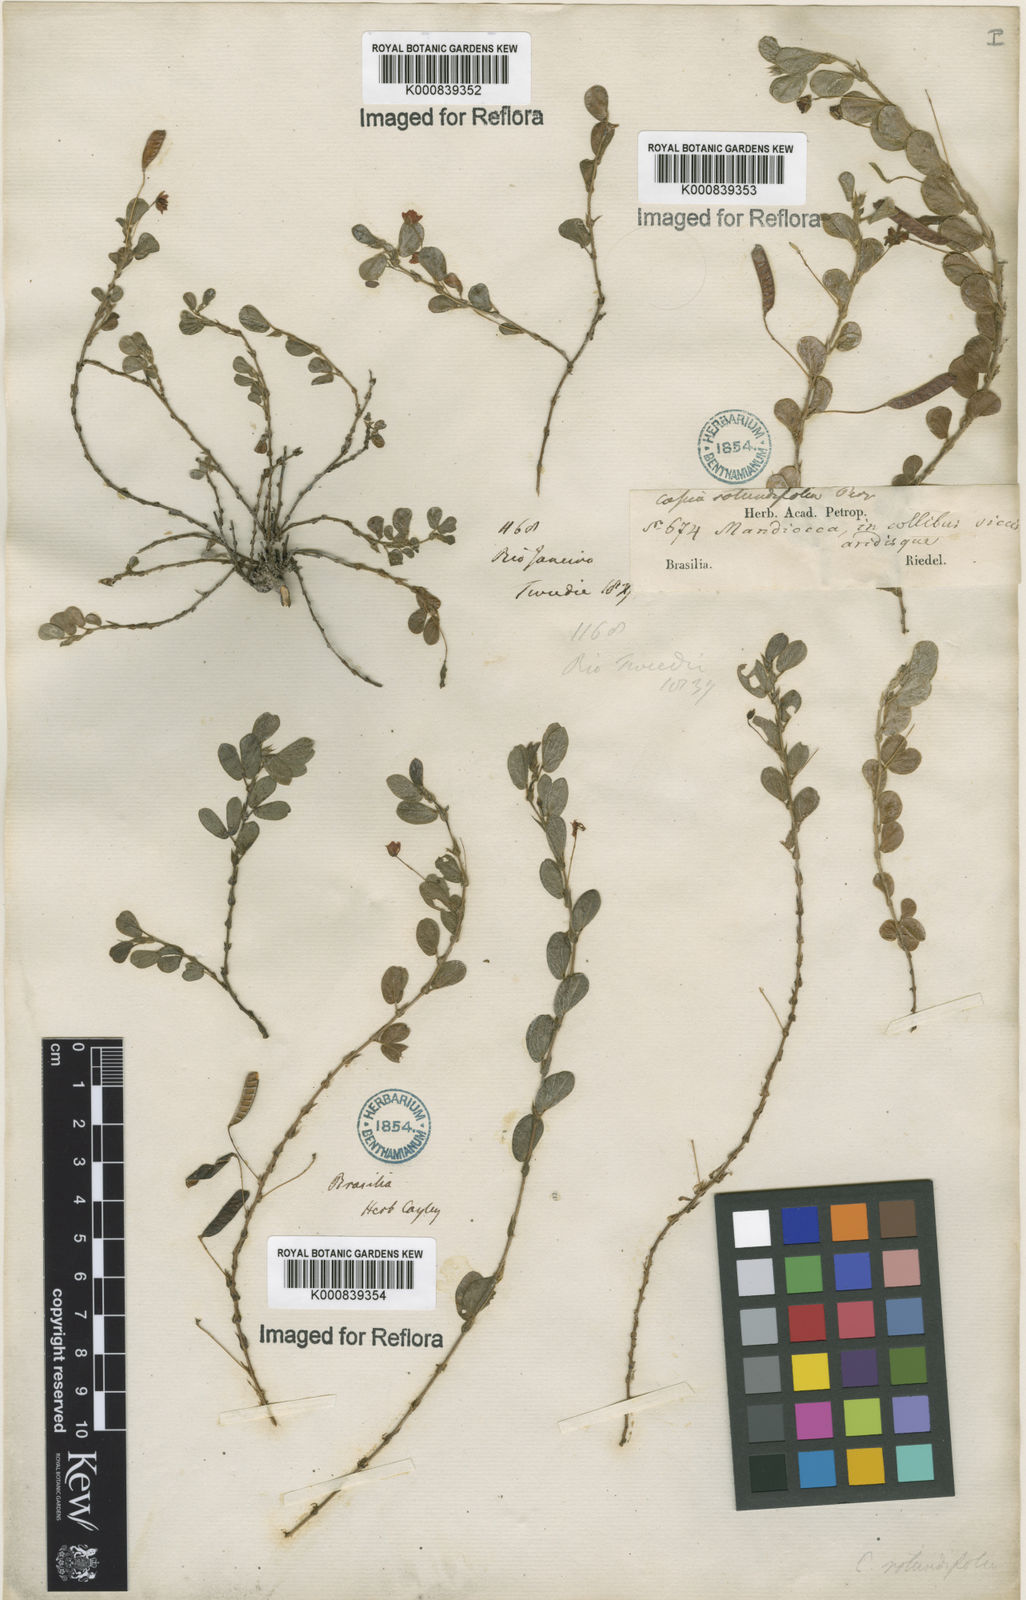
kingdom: Plantae
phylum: Tracheophyta
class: Magnoliopsida
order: Fabales
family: Fabaceae
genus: Chamaecrista
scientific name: Chamaecrista rotundifolia
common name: Round-leaf cassia
